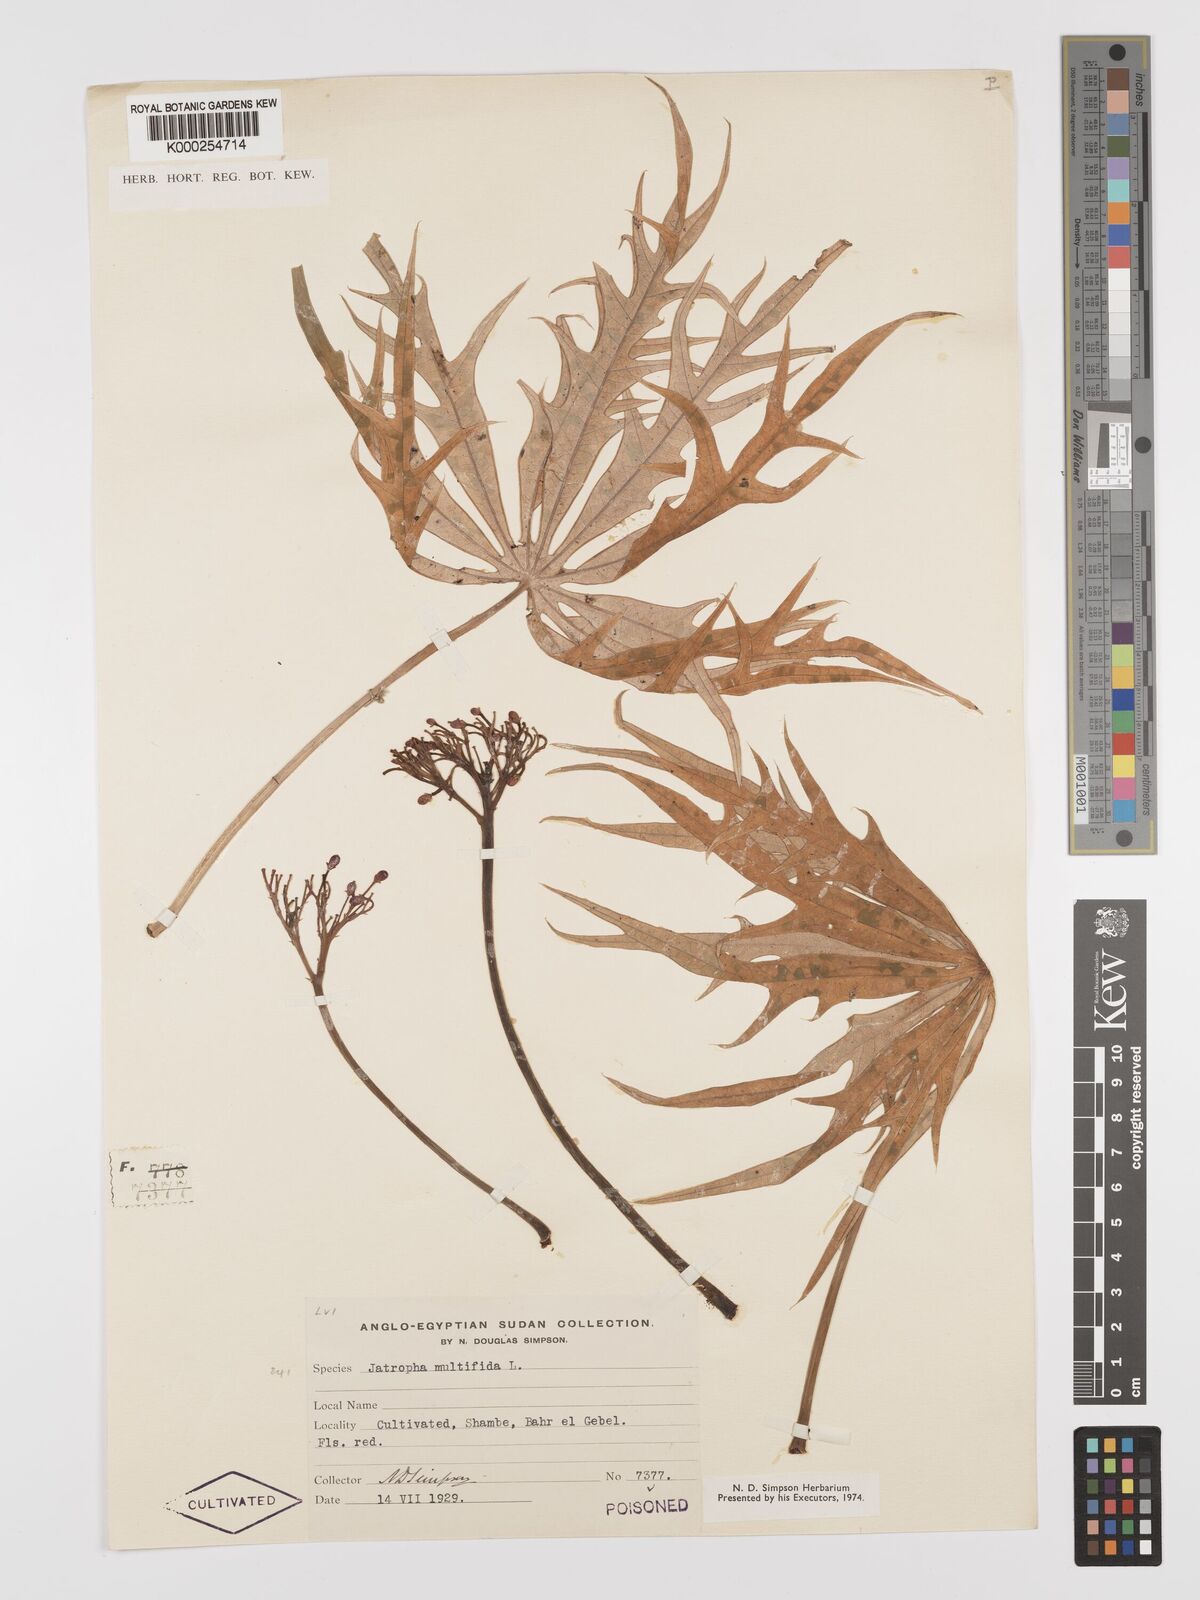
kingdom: Plantae
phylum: Tracheophyta
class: Magnoliopsida
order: Malpighiales
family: Euphorbiaceae
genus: Jatropha
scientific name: Jatropha multifida
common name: Coralbush
